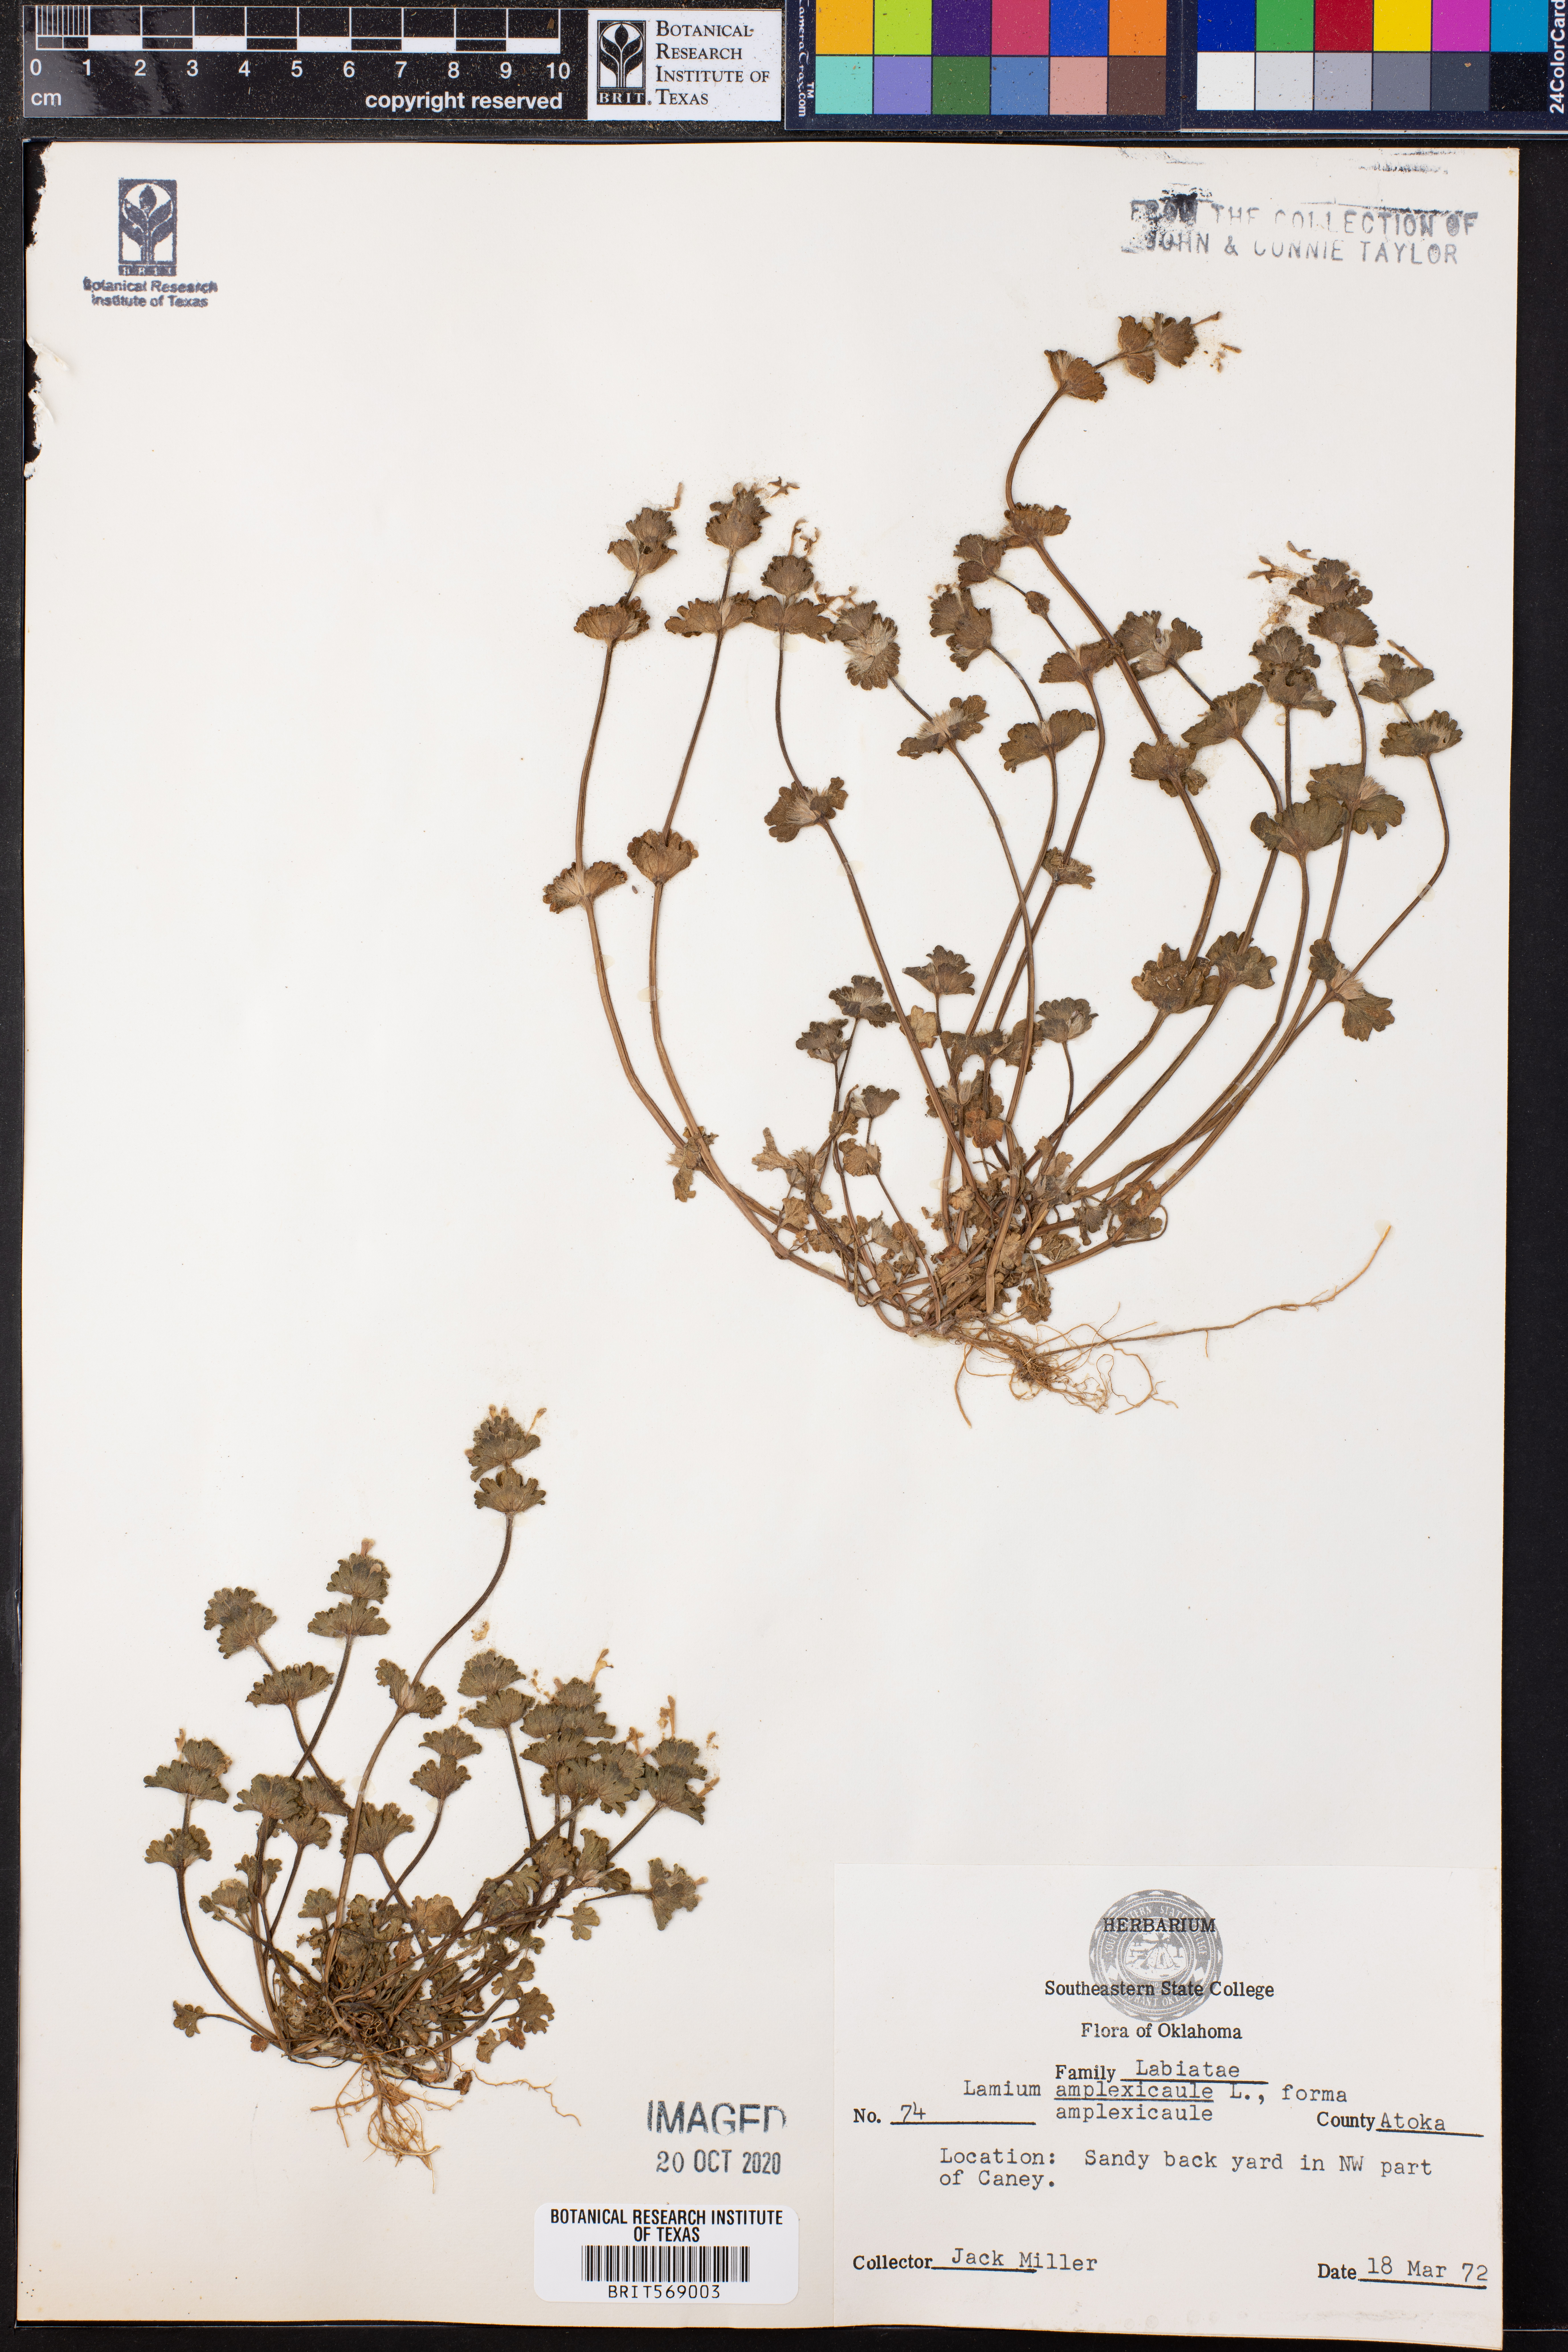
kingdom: Plantae
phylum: Tracheophyta
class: Magnoliopsida
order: Lamiales
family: Lamiaceae
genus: Lamium
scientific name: Lamium amplexicaule
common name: Henbit dead-nettle
